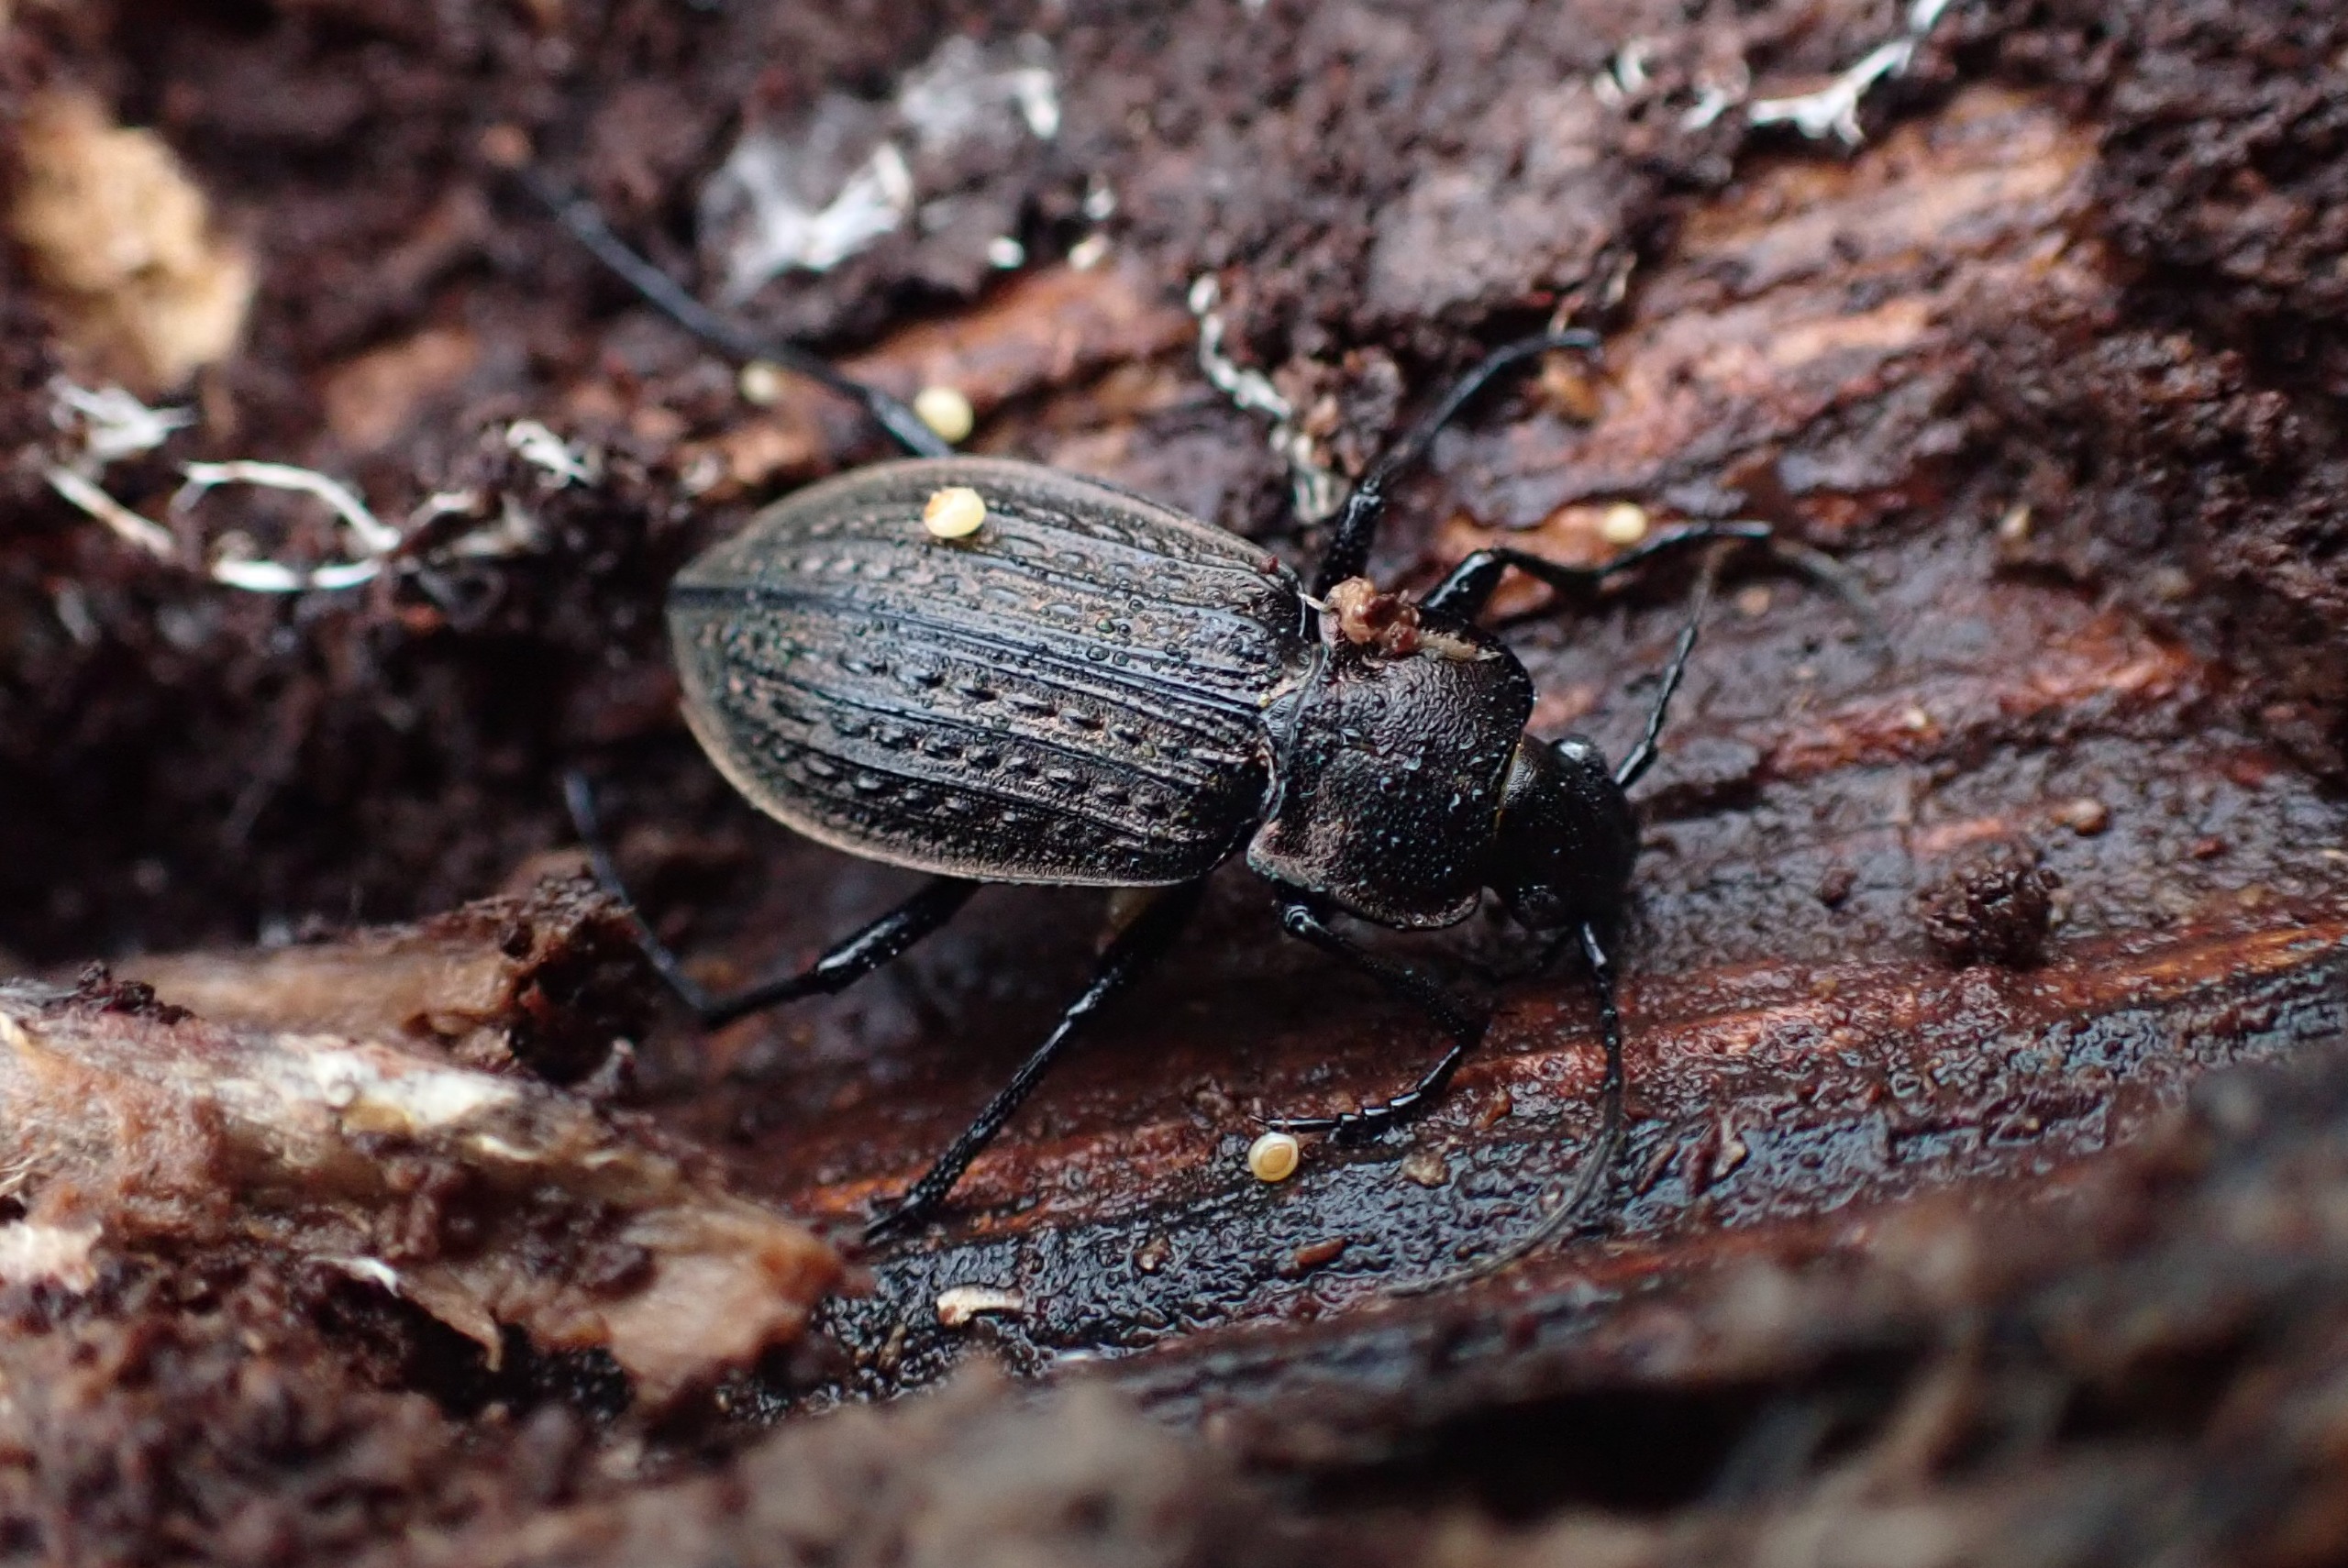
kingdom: Animalia
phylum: Arthropoda
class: Insecta
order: Coleoptera
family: Carabidae
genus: Carabus
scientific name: Carabus granulatus
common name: Kornet løber
